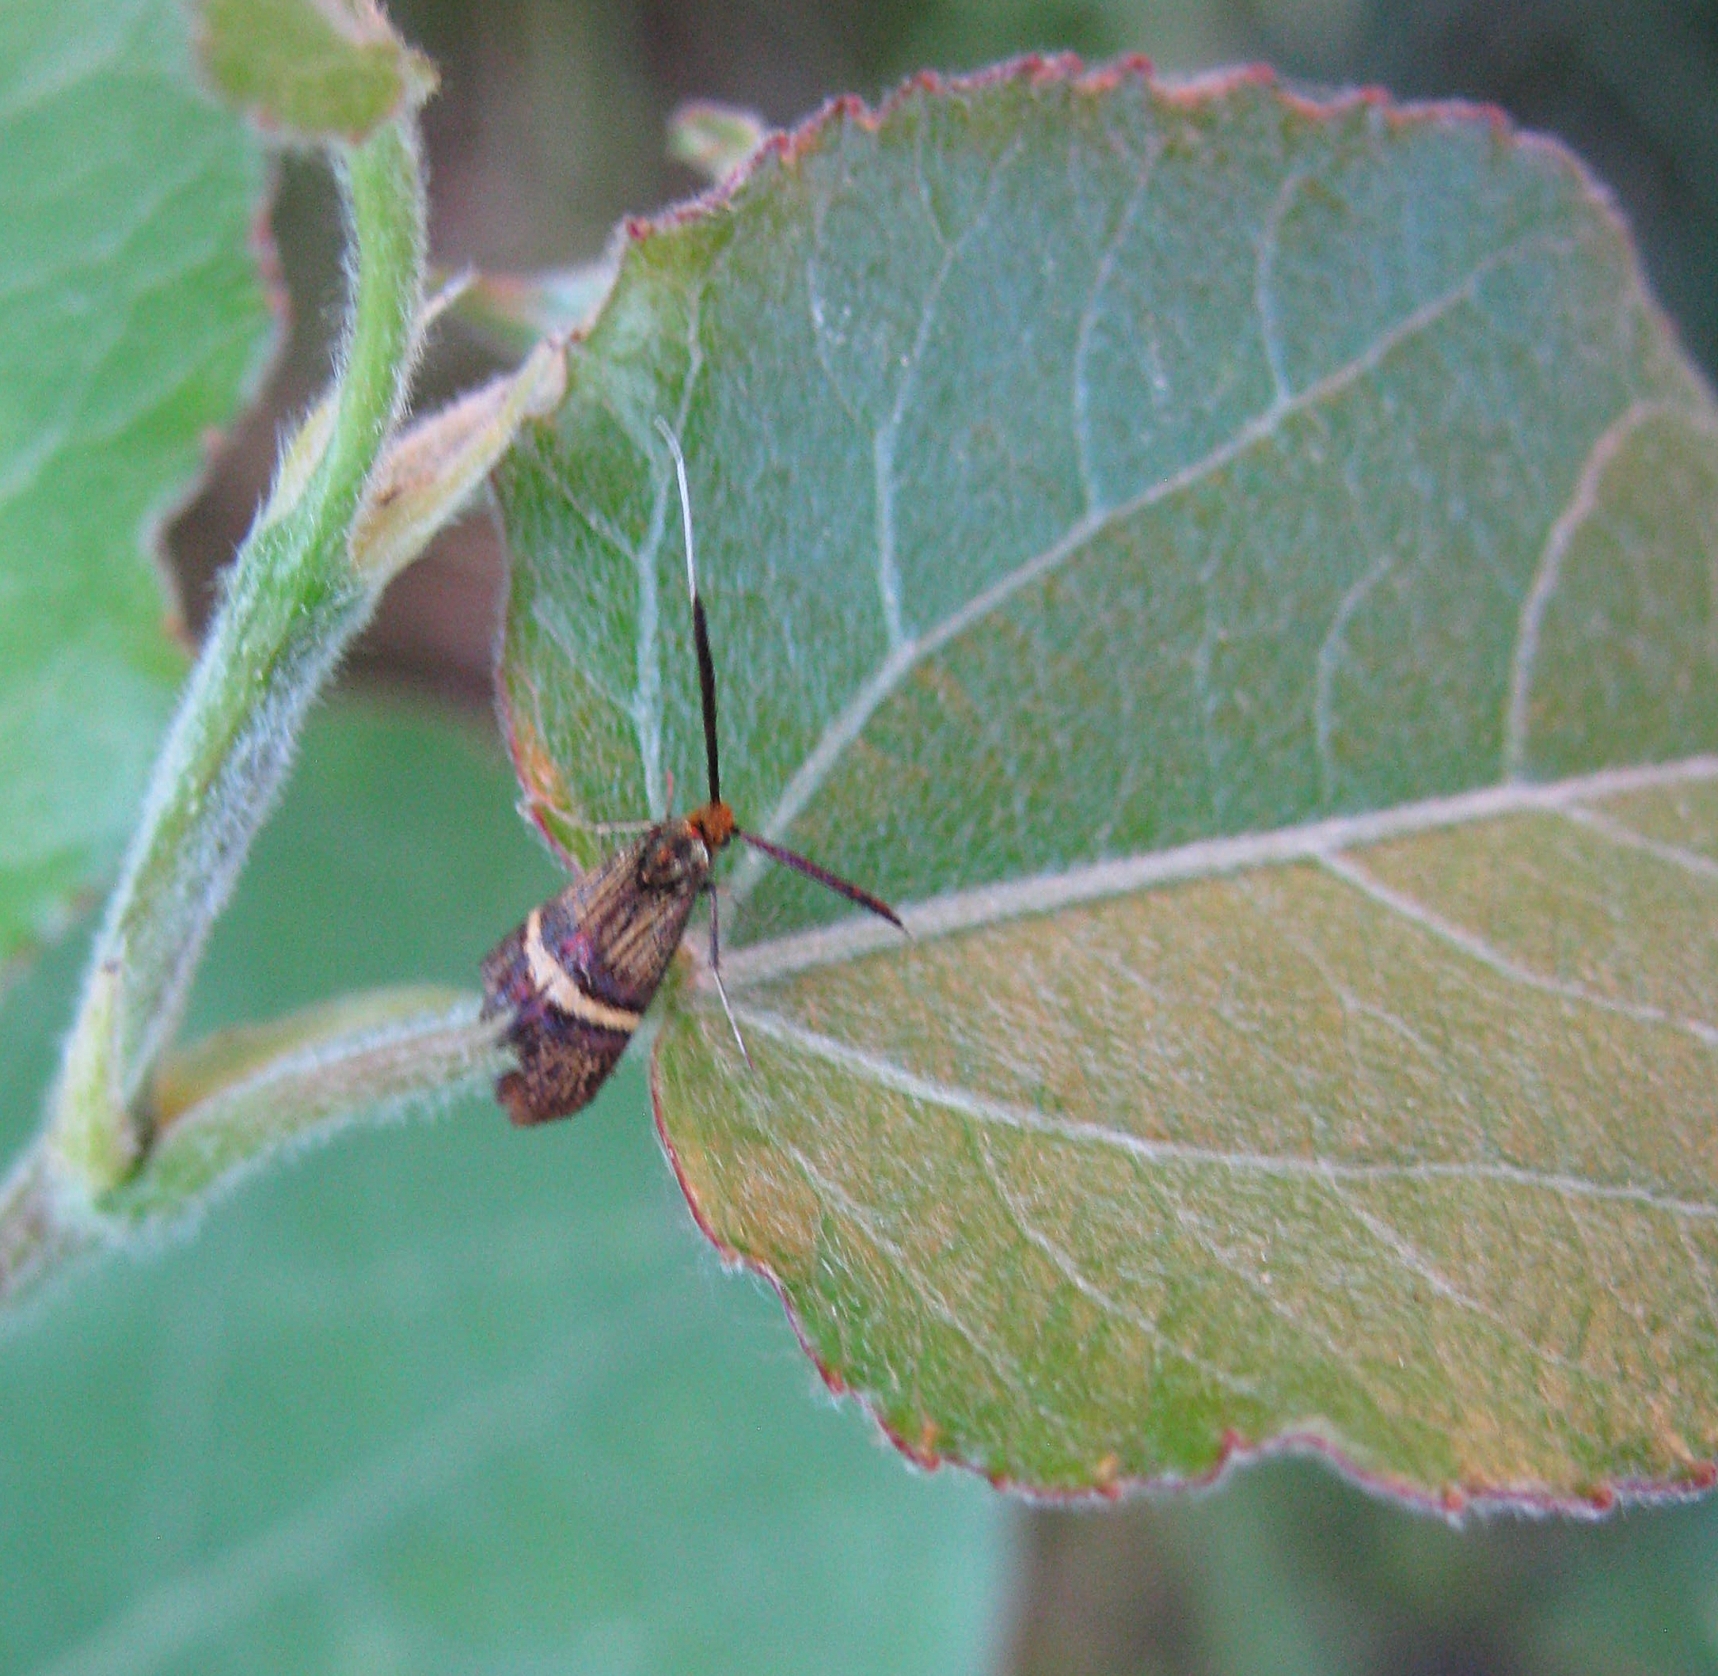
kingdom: Animalia
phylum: Arthropoda
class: Insecta
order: Lepidoptera
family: Adelidae
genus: Adela
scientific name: Adela croesella
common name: Small barred long-horn
